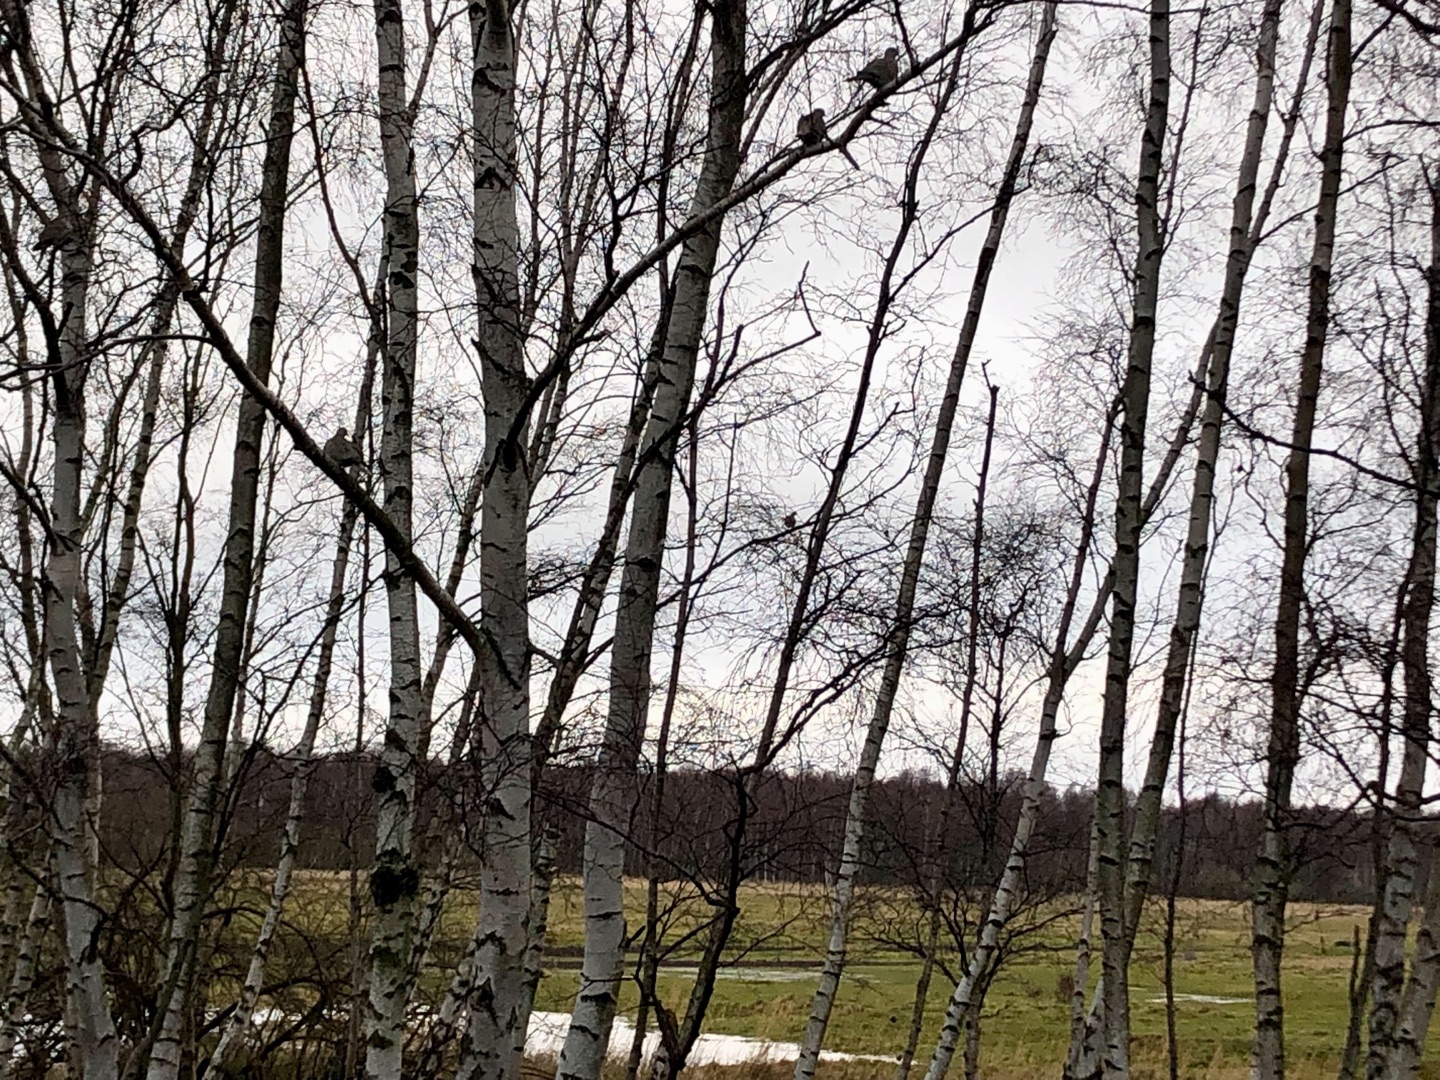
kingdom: Animalia
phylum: Chordata
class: Aves
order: Columbiformes
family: Columbidae
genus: Streptopelia
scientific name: Streptopelia decaocto
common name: Tyrkerdue
